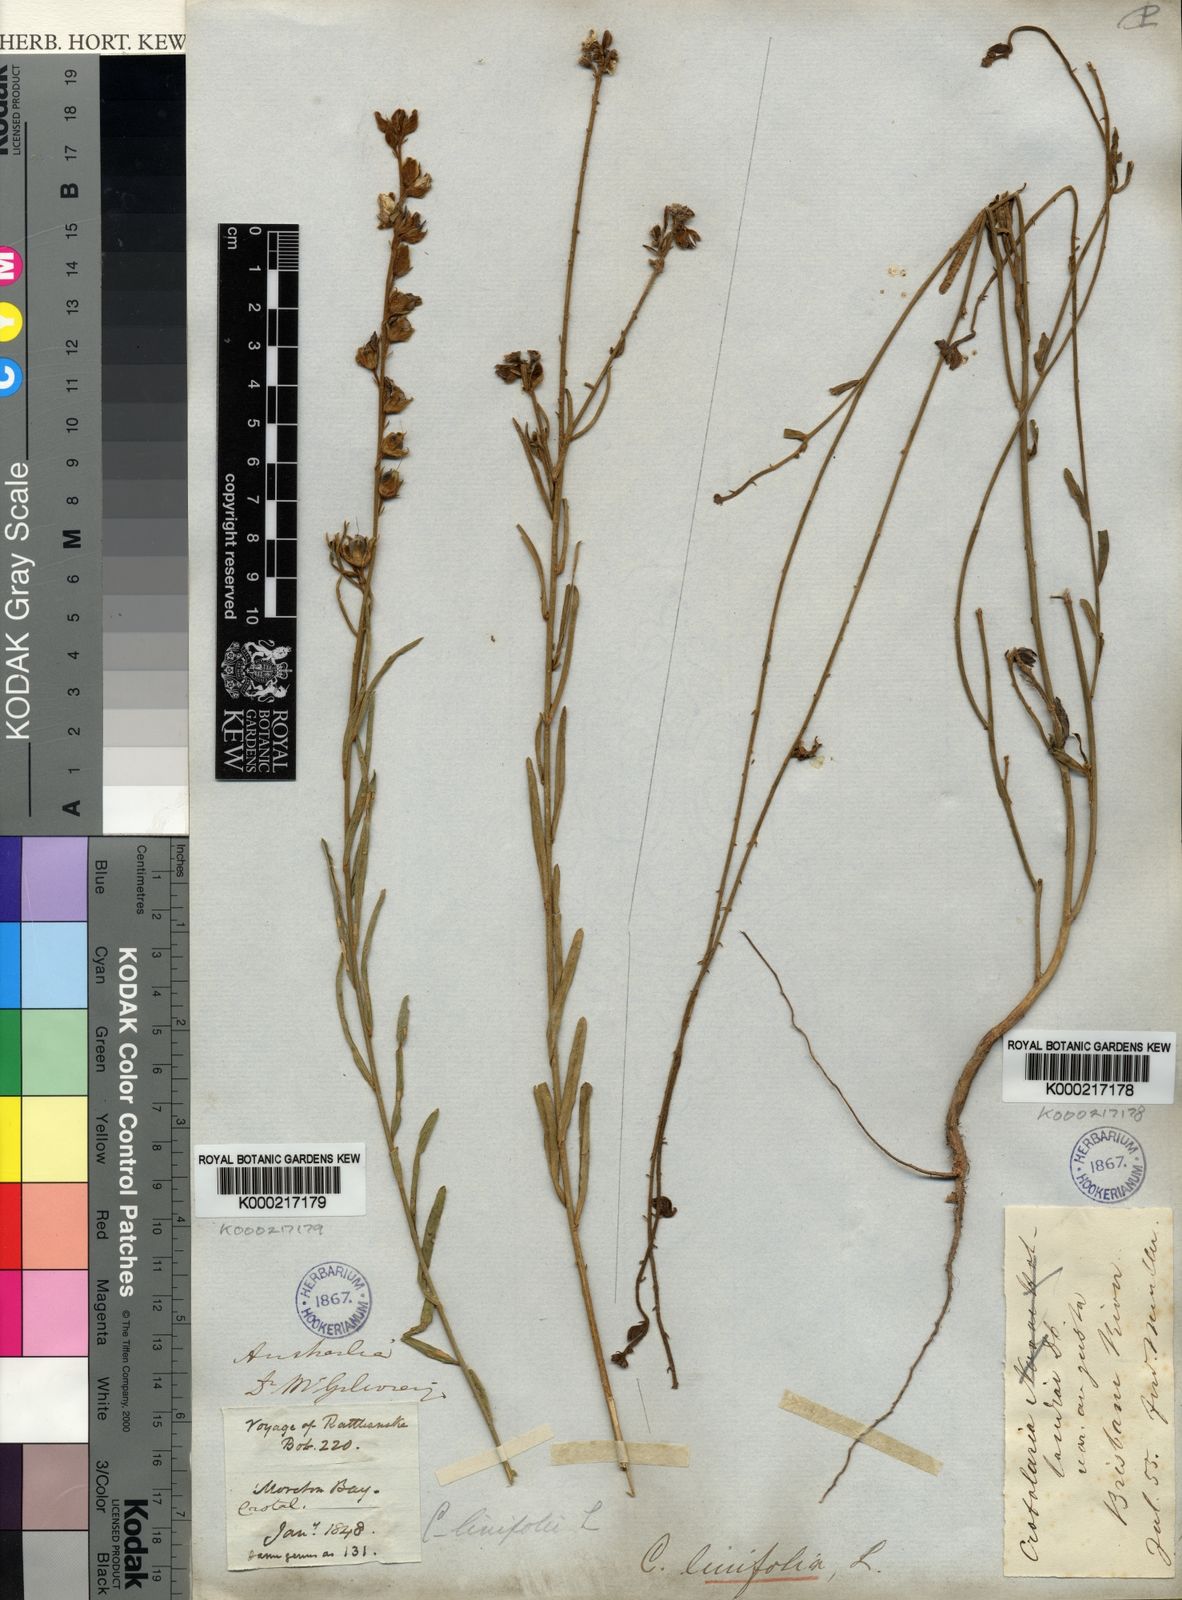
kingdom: Plantae
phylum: Tracheophyta
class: Magnoliopsida
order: Fabales
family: Fabaceae
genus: Crotalaria
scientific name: Crotalaria linifolia
